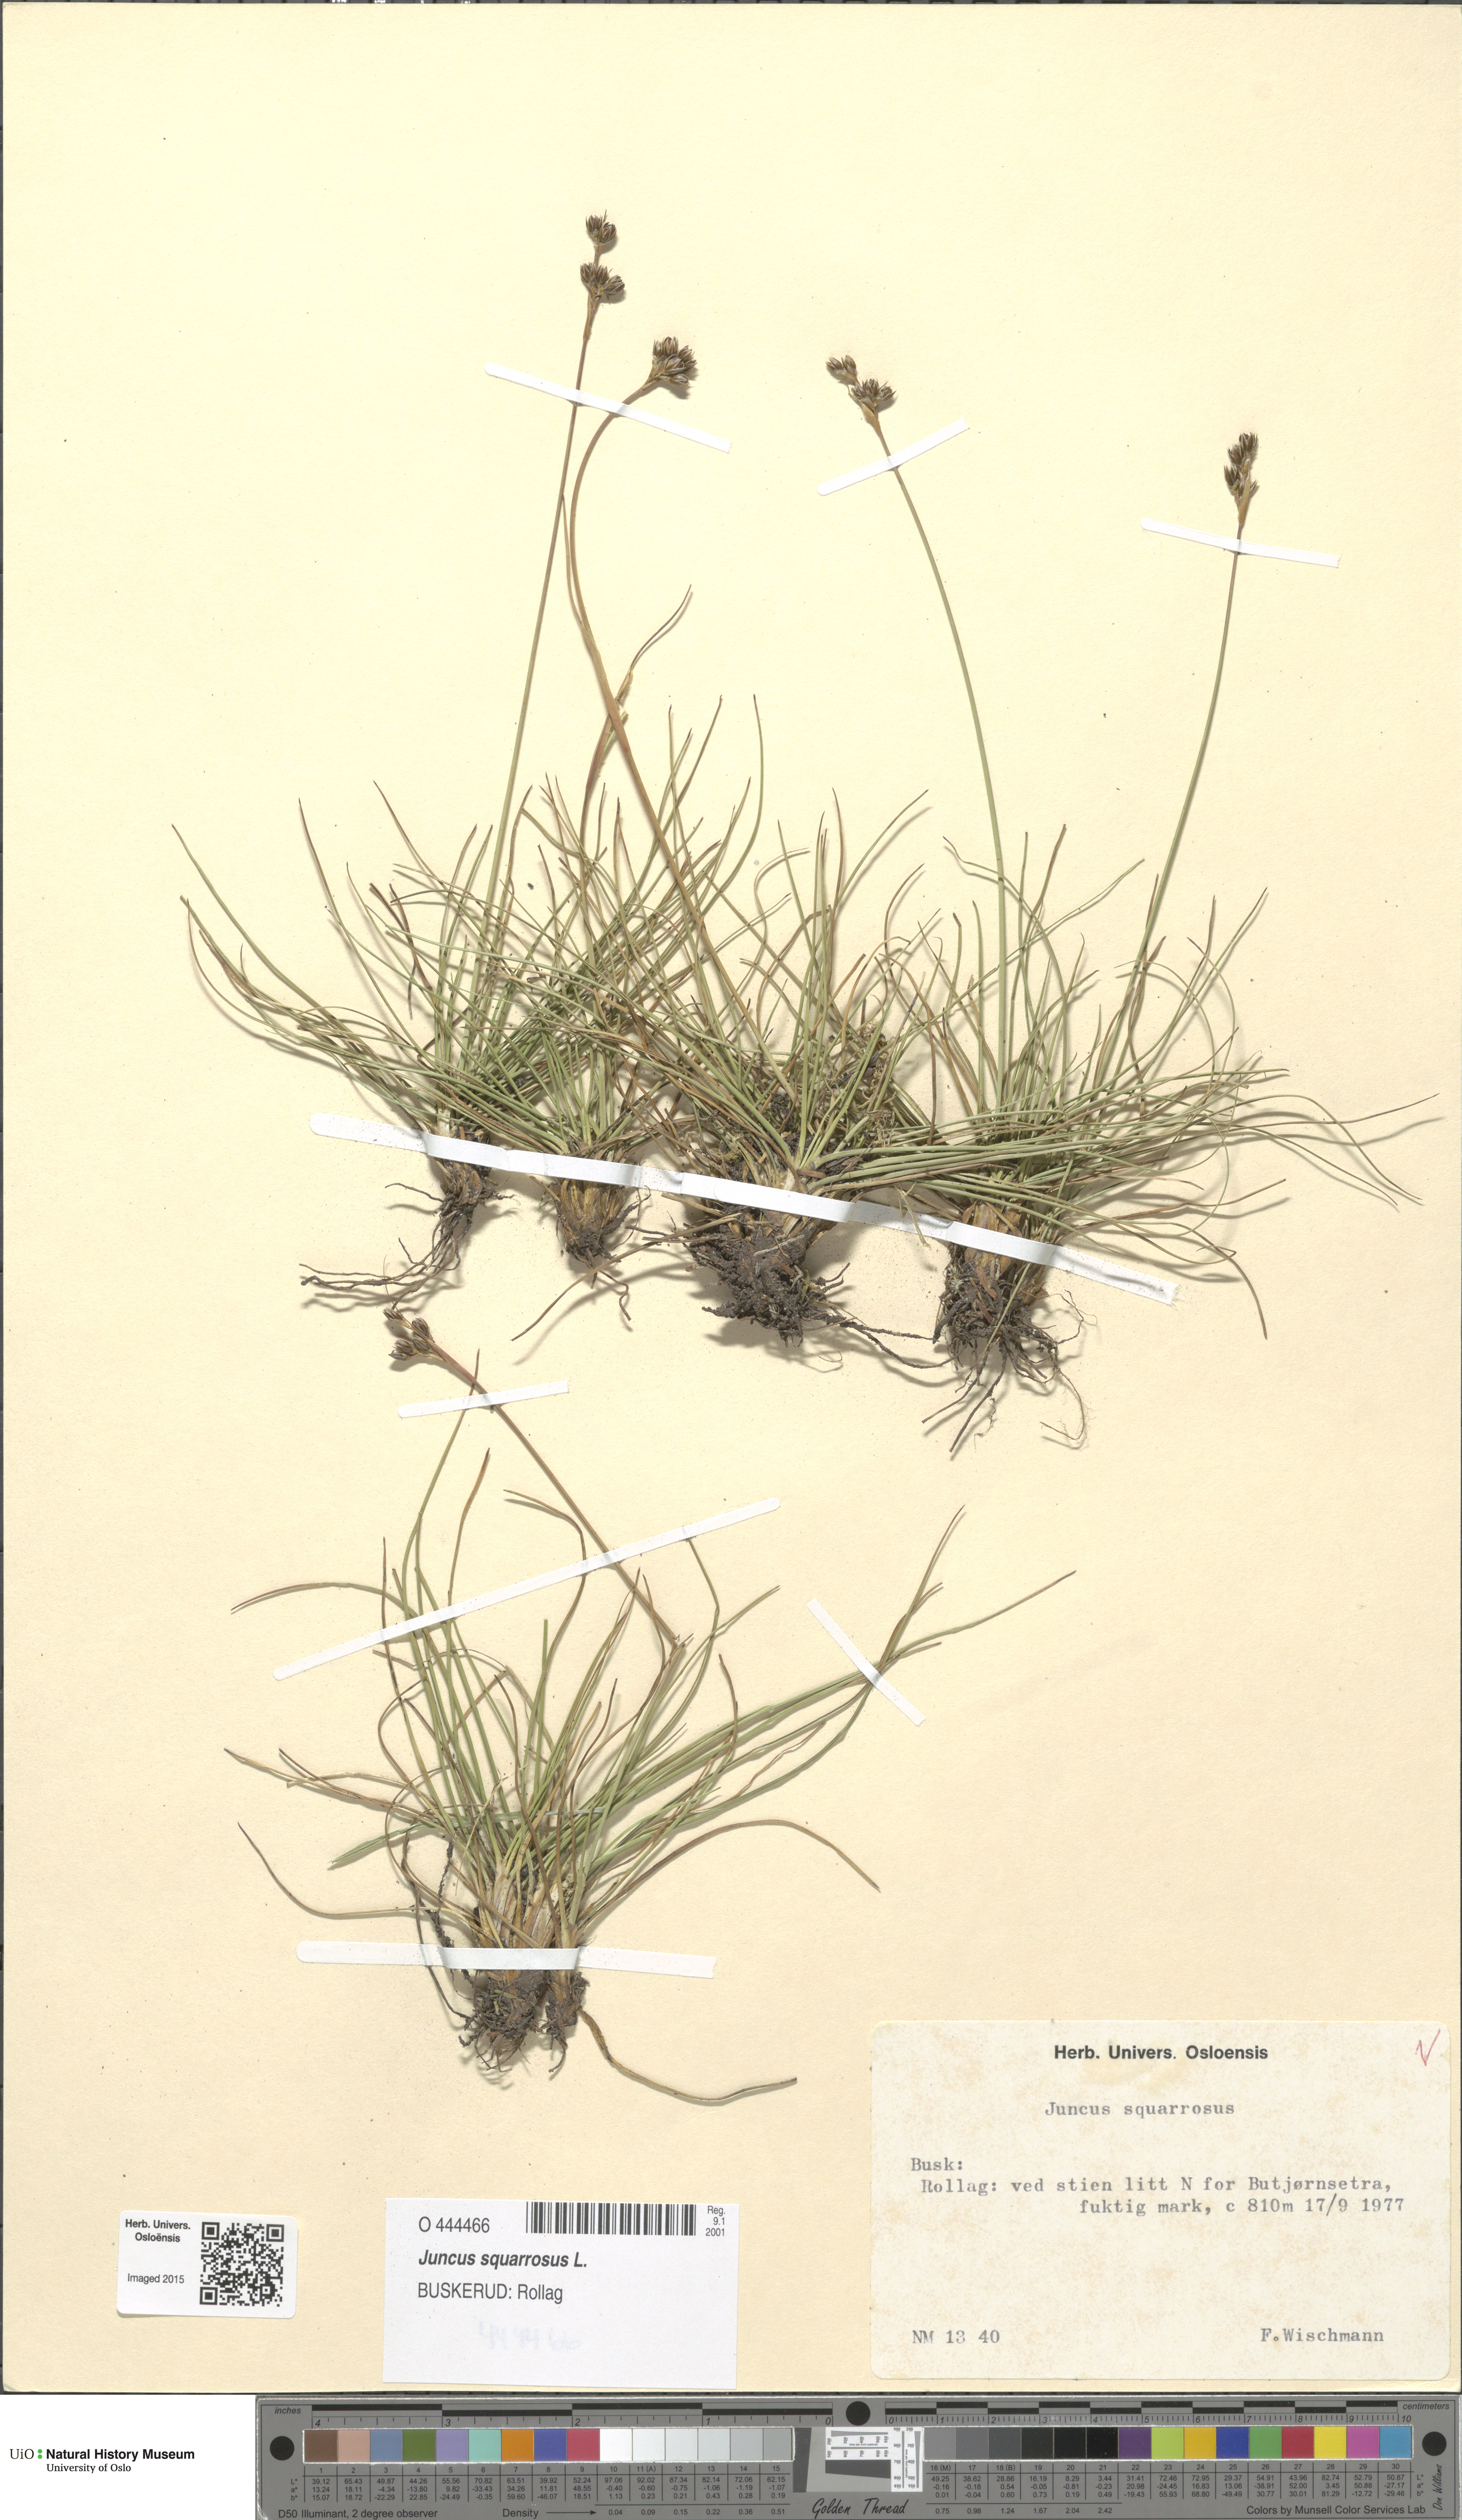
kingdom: Plantae
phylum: Tracheophyta
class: Liliopsida
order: Poales
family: Juncaceae
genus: Juncus
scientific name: Juncus squarrosus
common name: Heath rush
